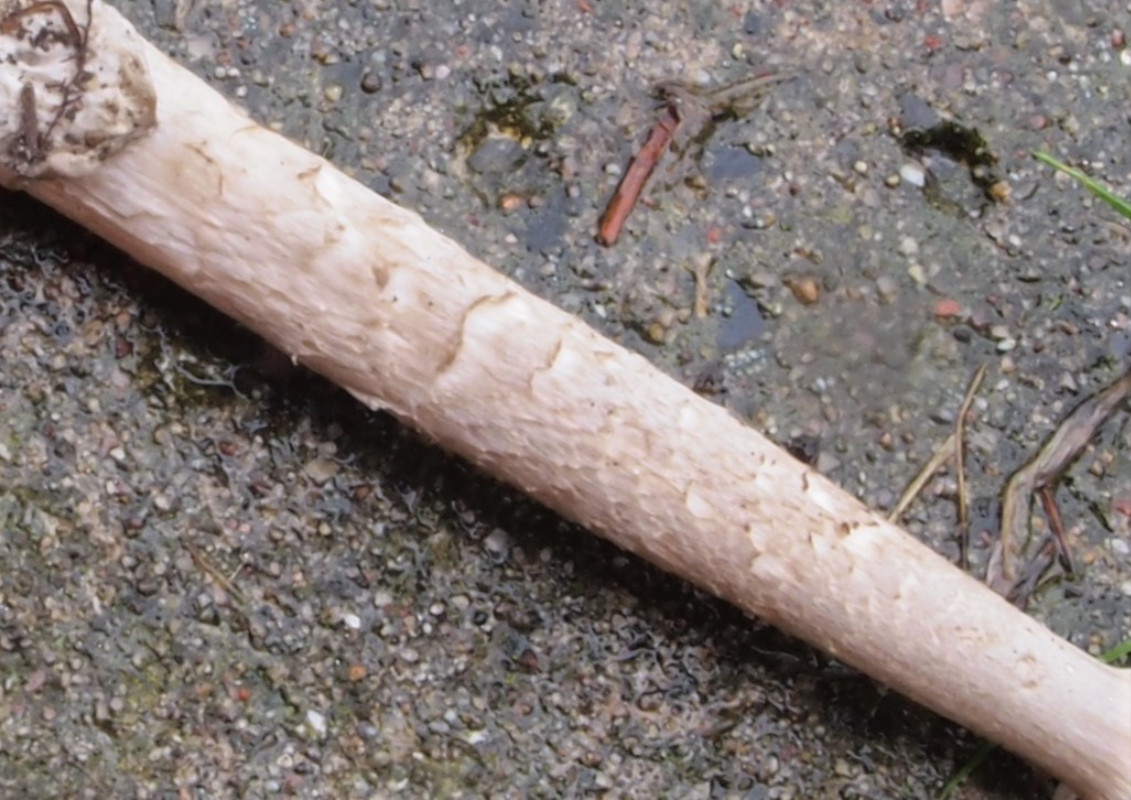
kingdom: Fungi
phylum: Basidiomycota
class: Agaricomycetes
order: Agaricales
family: Amanitaceae
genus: Amanita
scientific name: Amanita submembranacea
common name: gråspættet kam-fluesvamp
